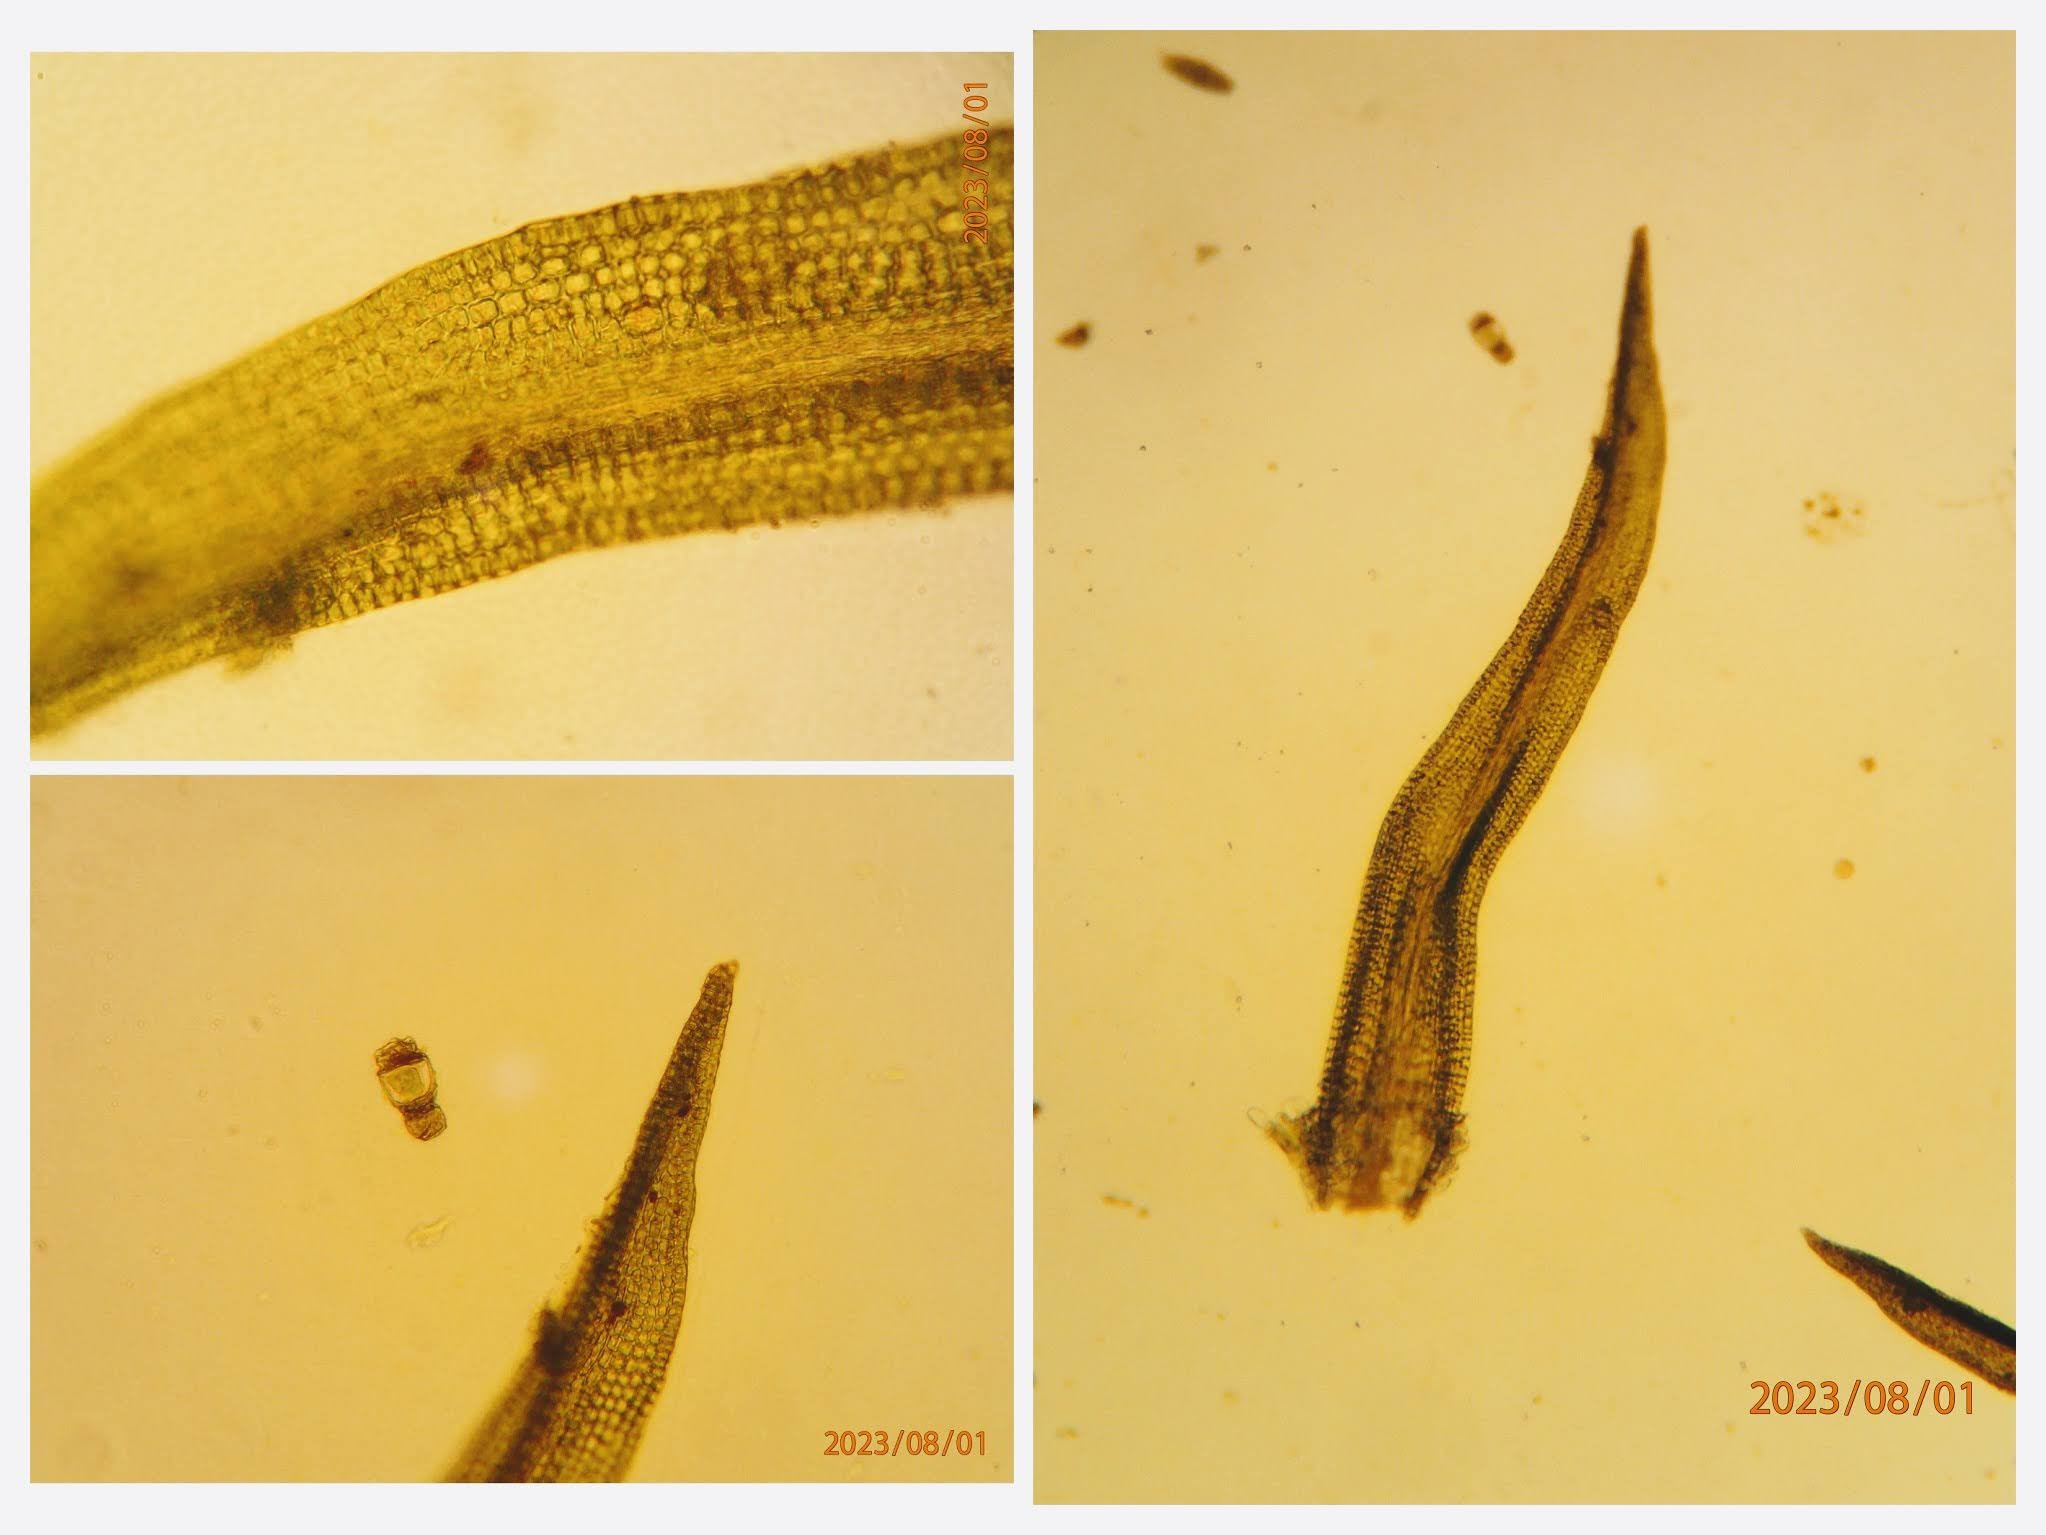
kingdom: Plantae
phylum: Bryophyta
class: Bryopsida
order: Dicranales
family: Rhabdoweisiaceae
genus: Dicranoweisia
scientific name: Dicranoweisia cirrata
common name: Almindelig krøltuemos
